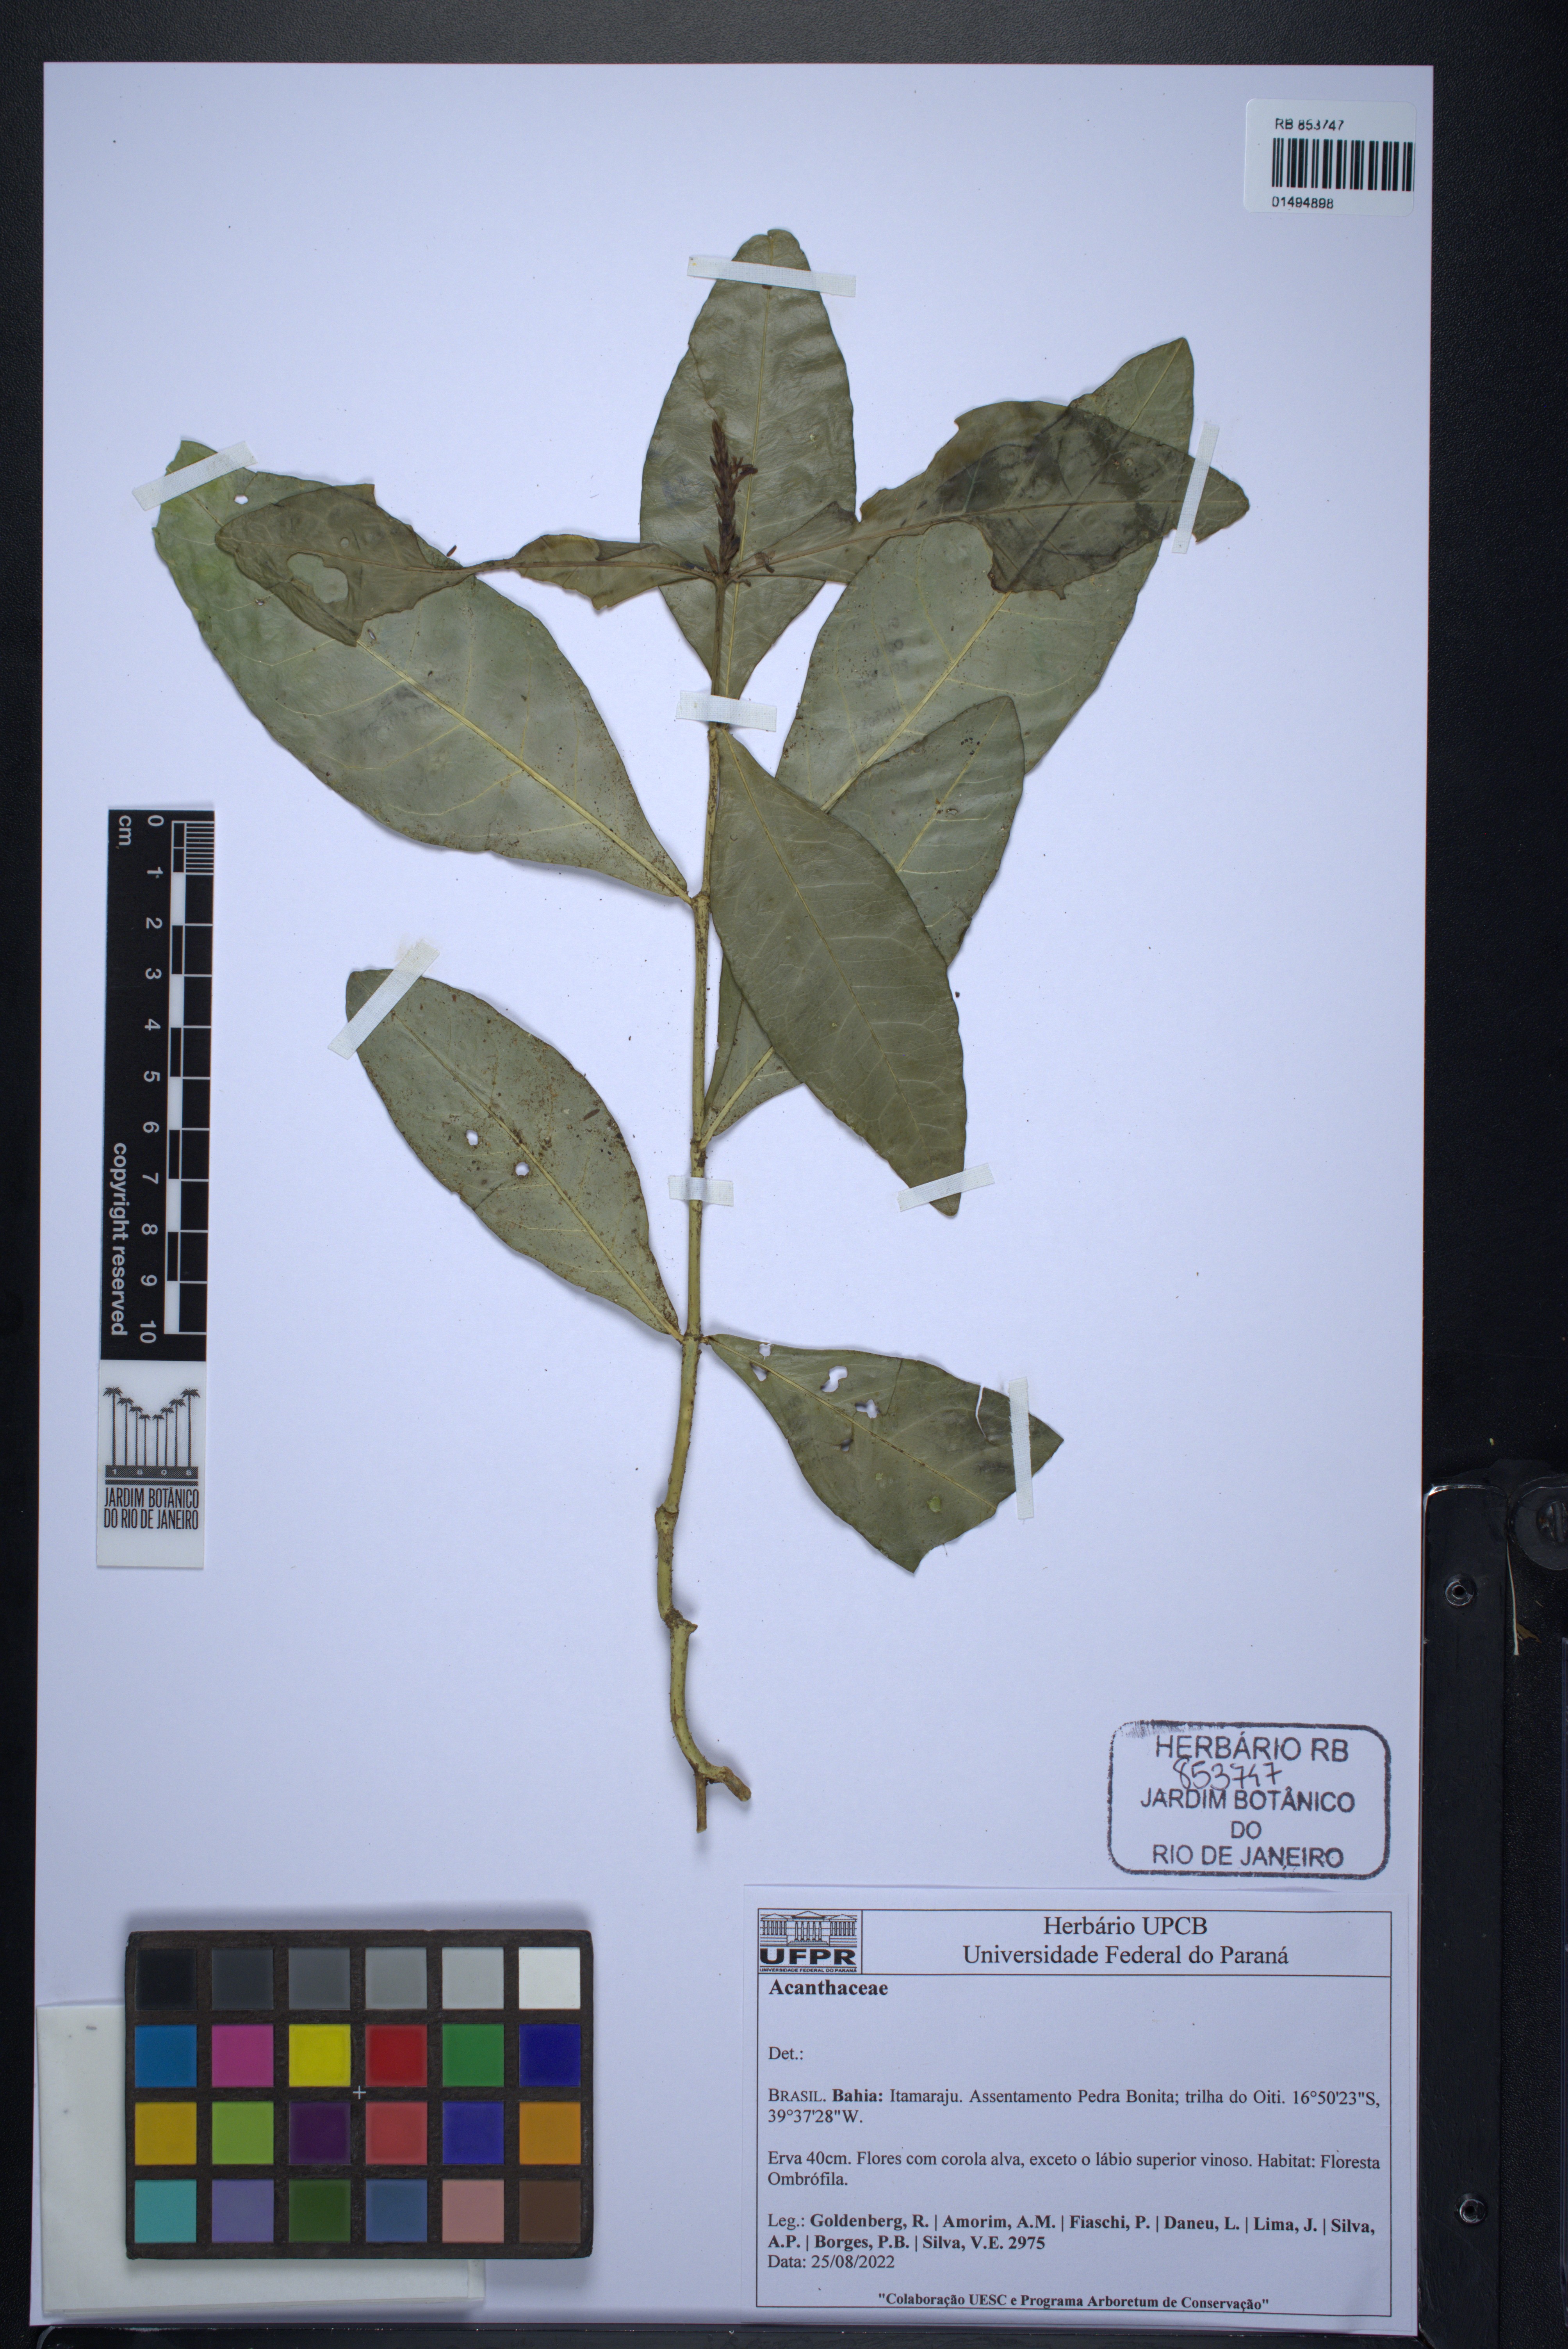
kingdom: Plantae
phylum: Tracheophyta
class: Magnoliopsida
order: Lamiales
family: Acanthaceae
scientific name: Acanthaceae
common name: Acanthaceae
